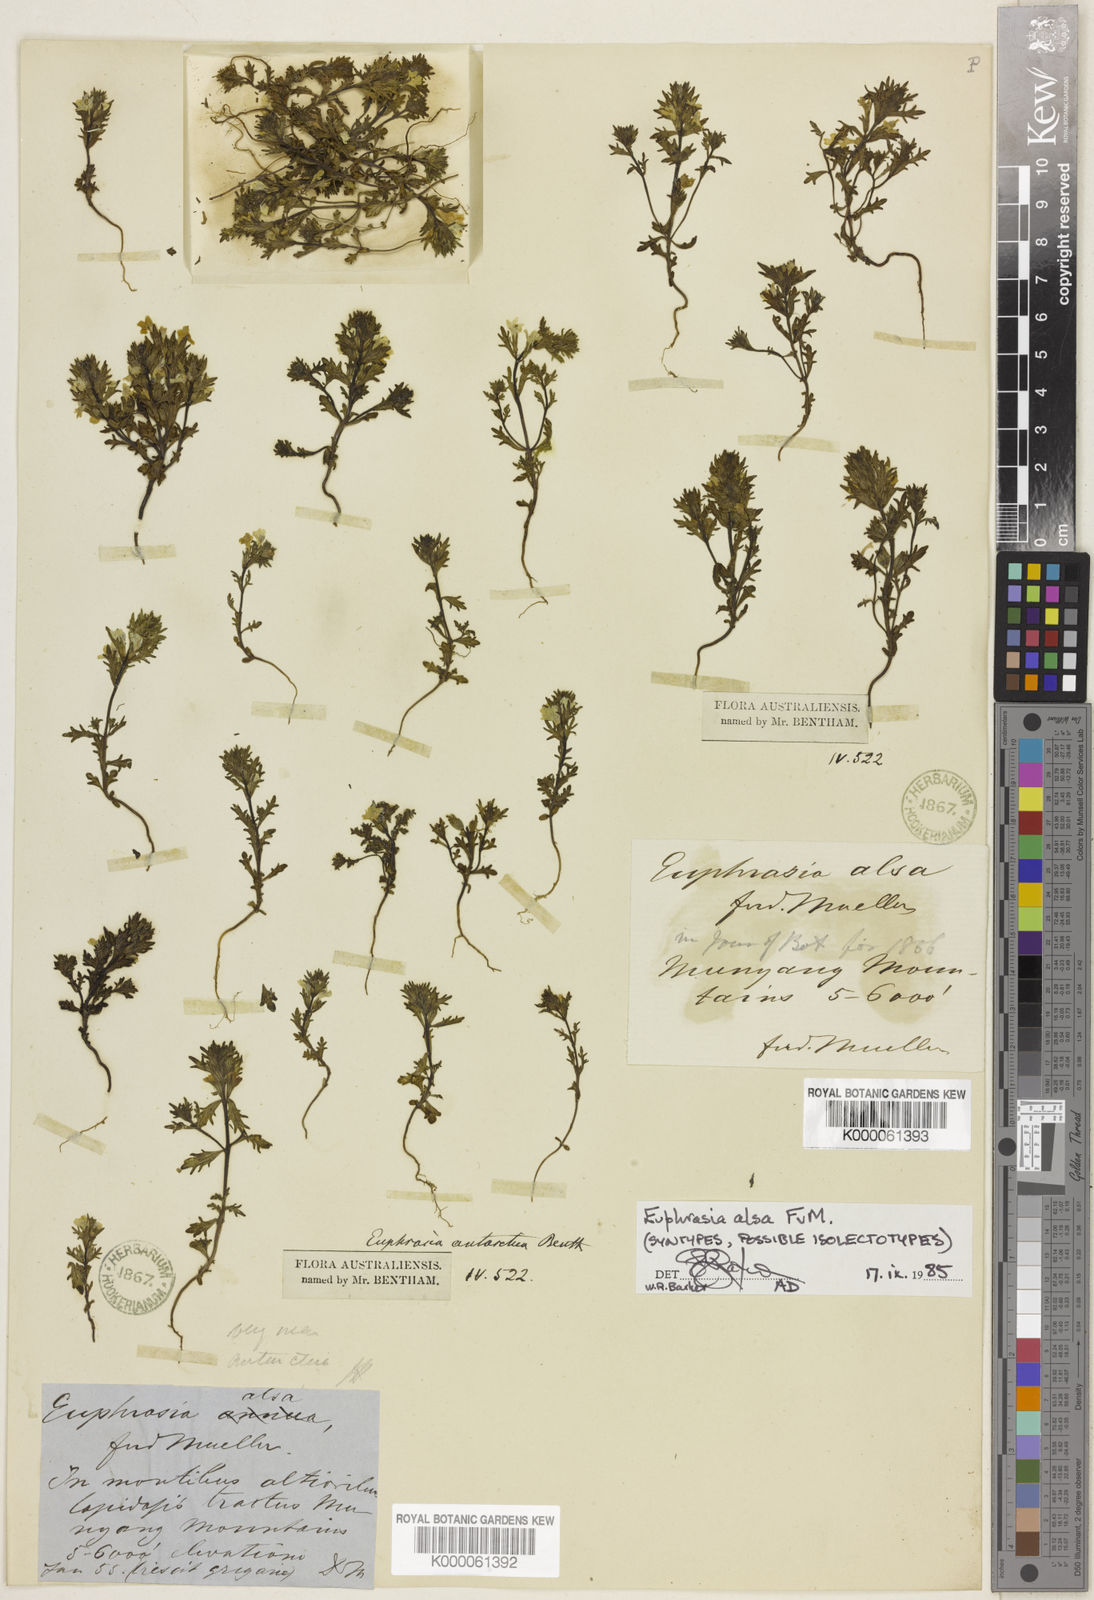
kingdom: Plantae
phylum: Tracheophyta
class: Magnoliopsida
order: Lamiales
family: Orobanchaceae
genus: Euphrasia
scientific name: Euphrasia alsa
